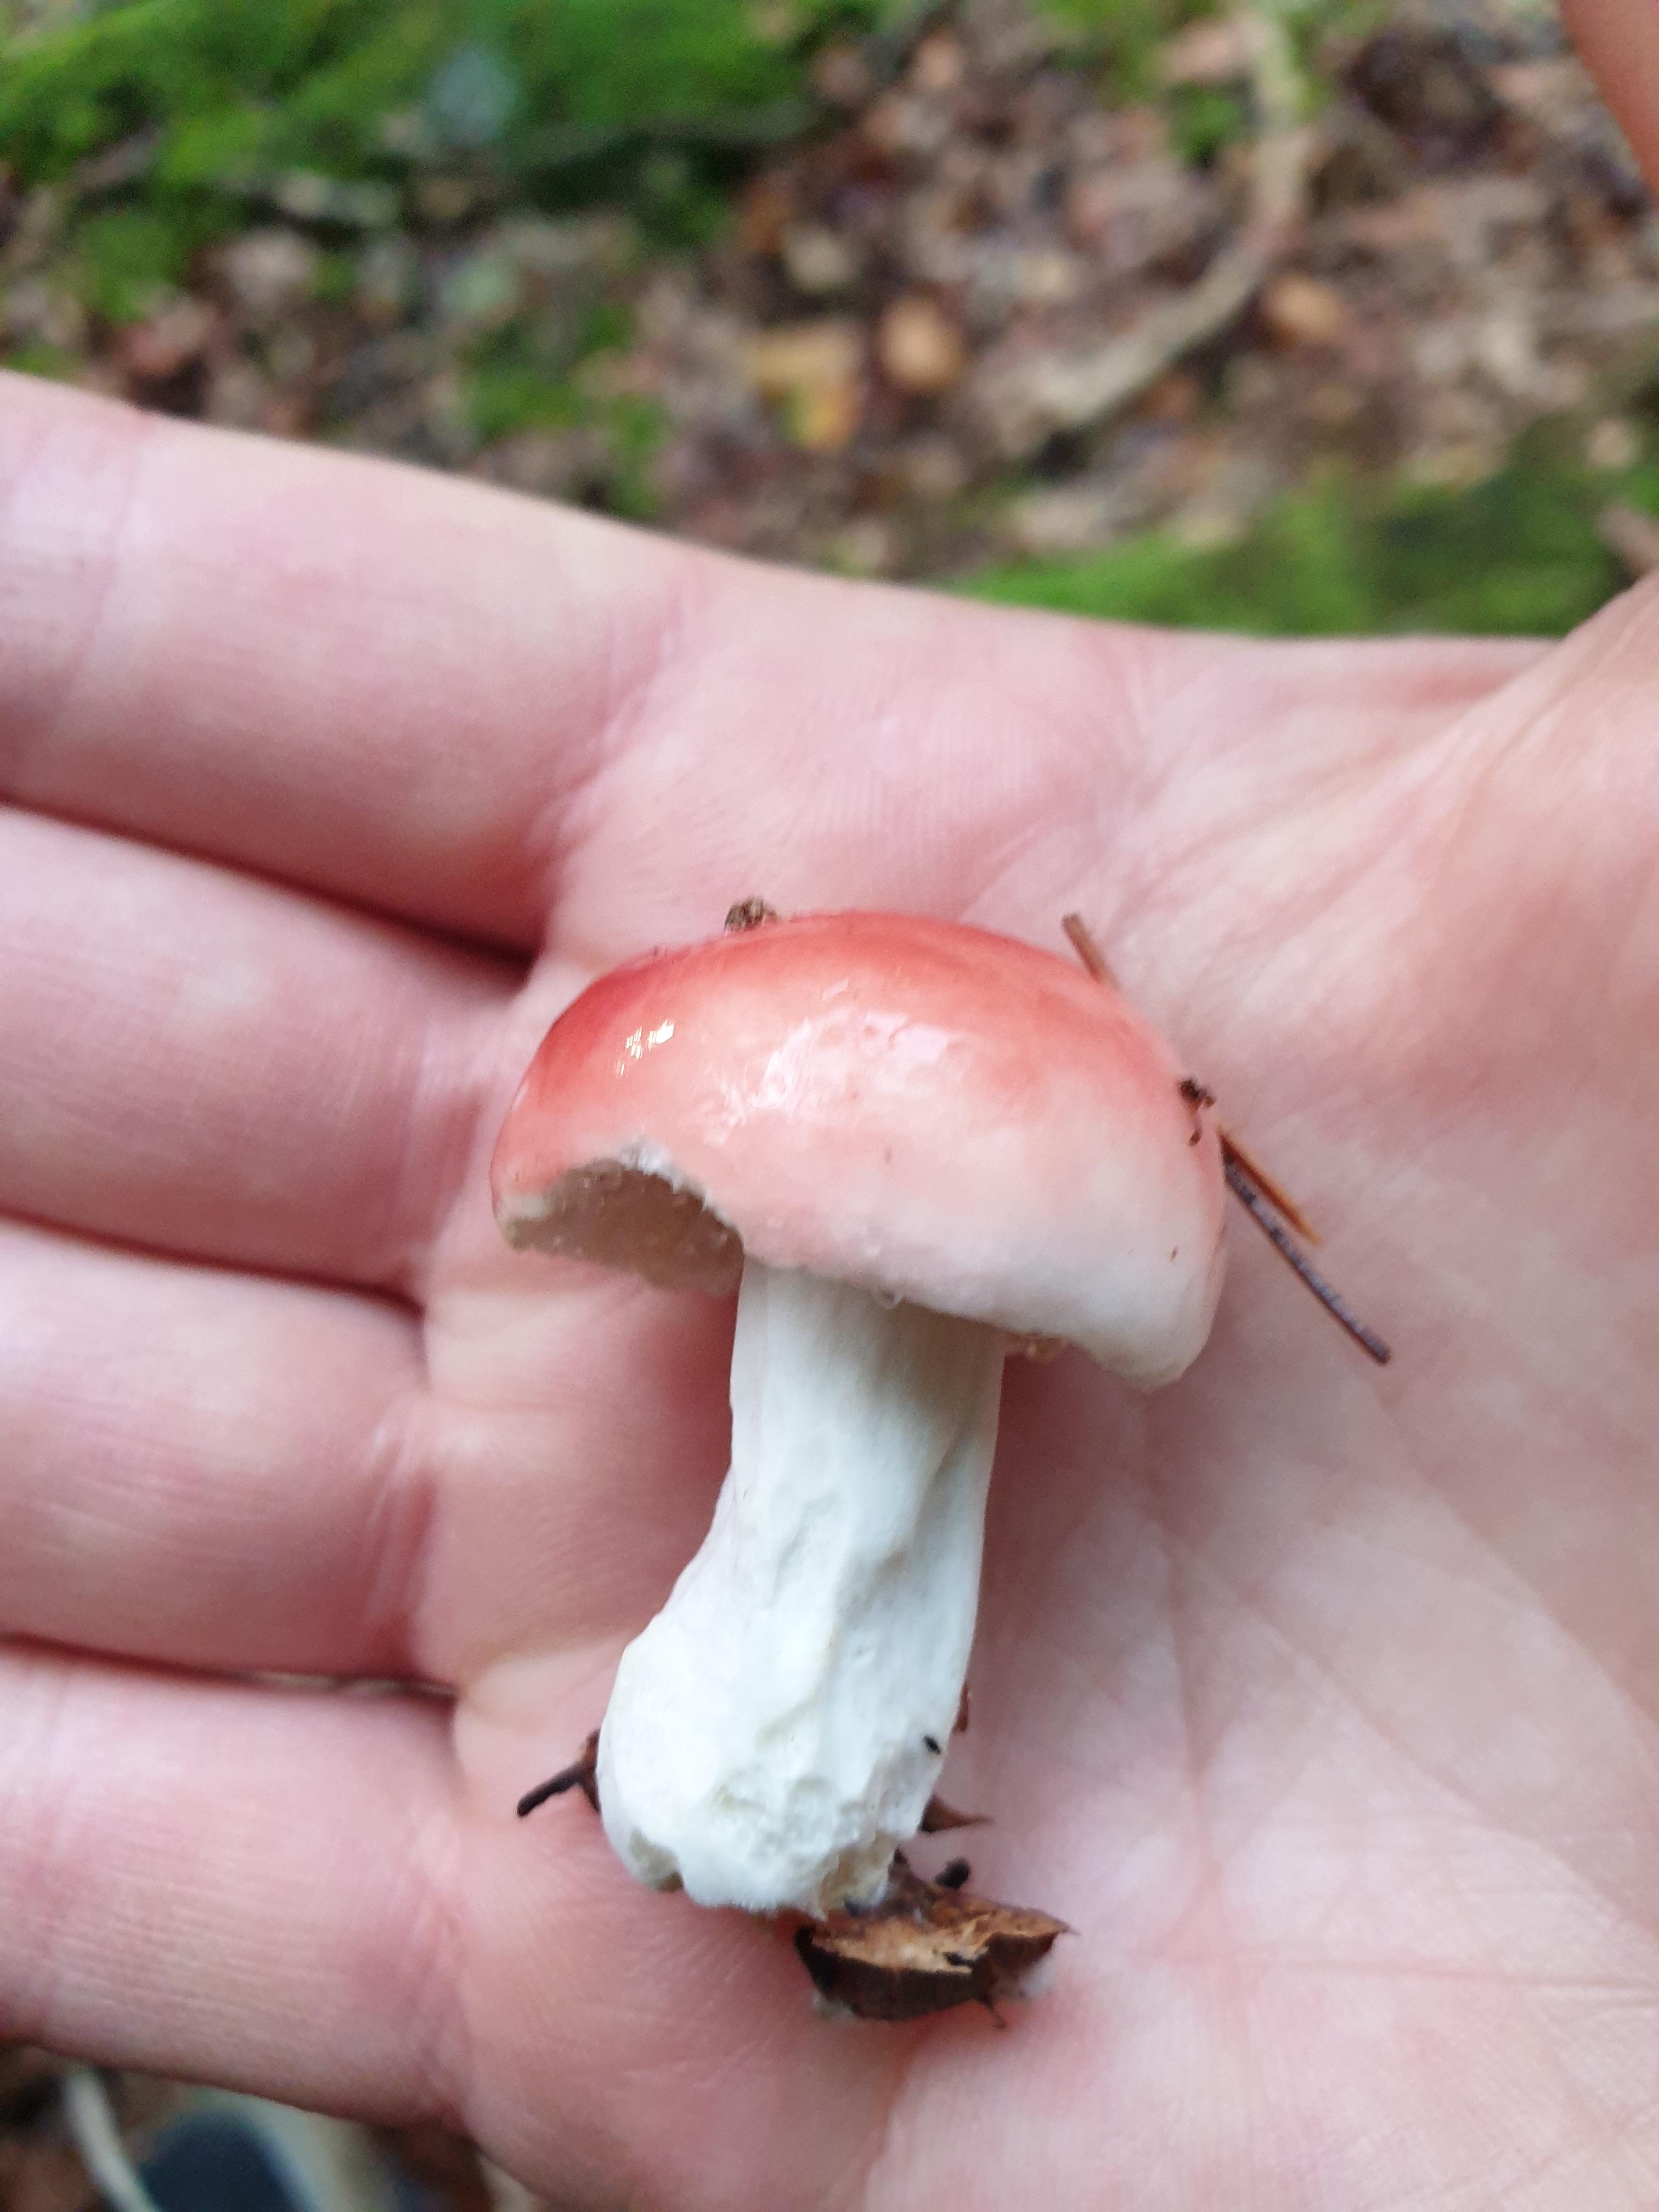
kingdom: Fungi
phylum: Basidiomycota
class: Agaricomycetes
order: Russulales
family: Russulaceae
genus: Russula
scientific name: Russula
